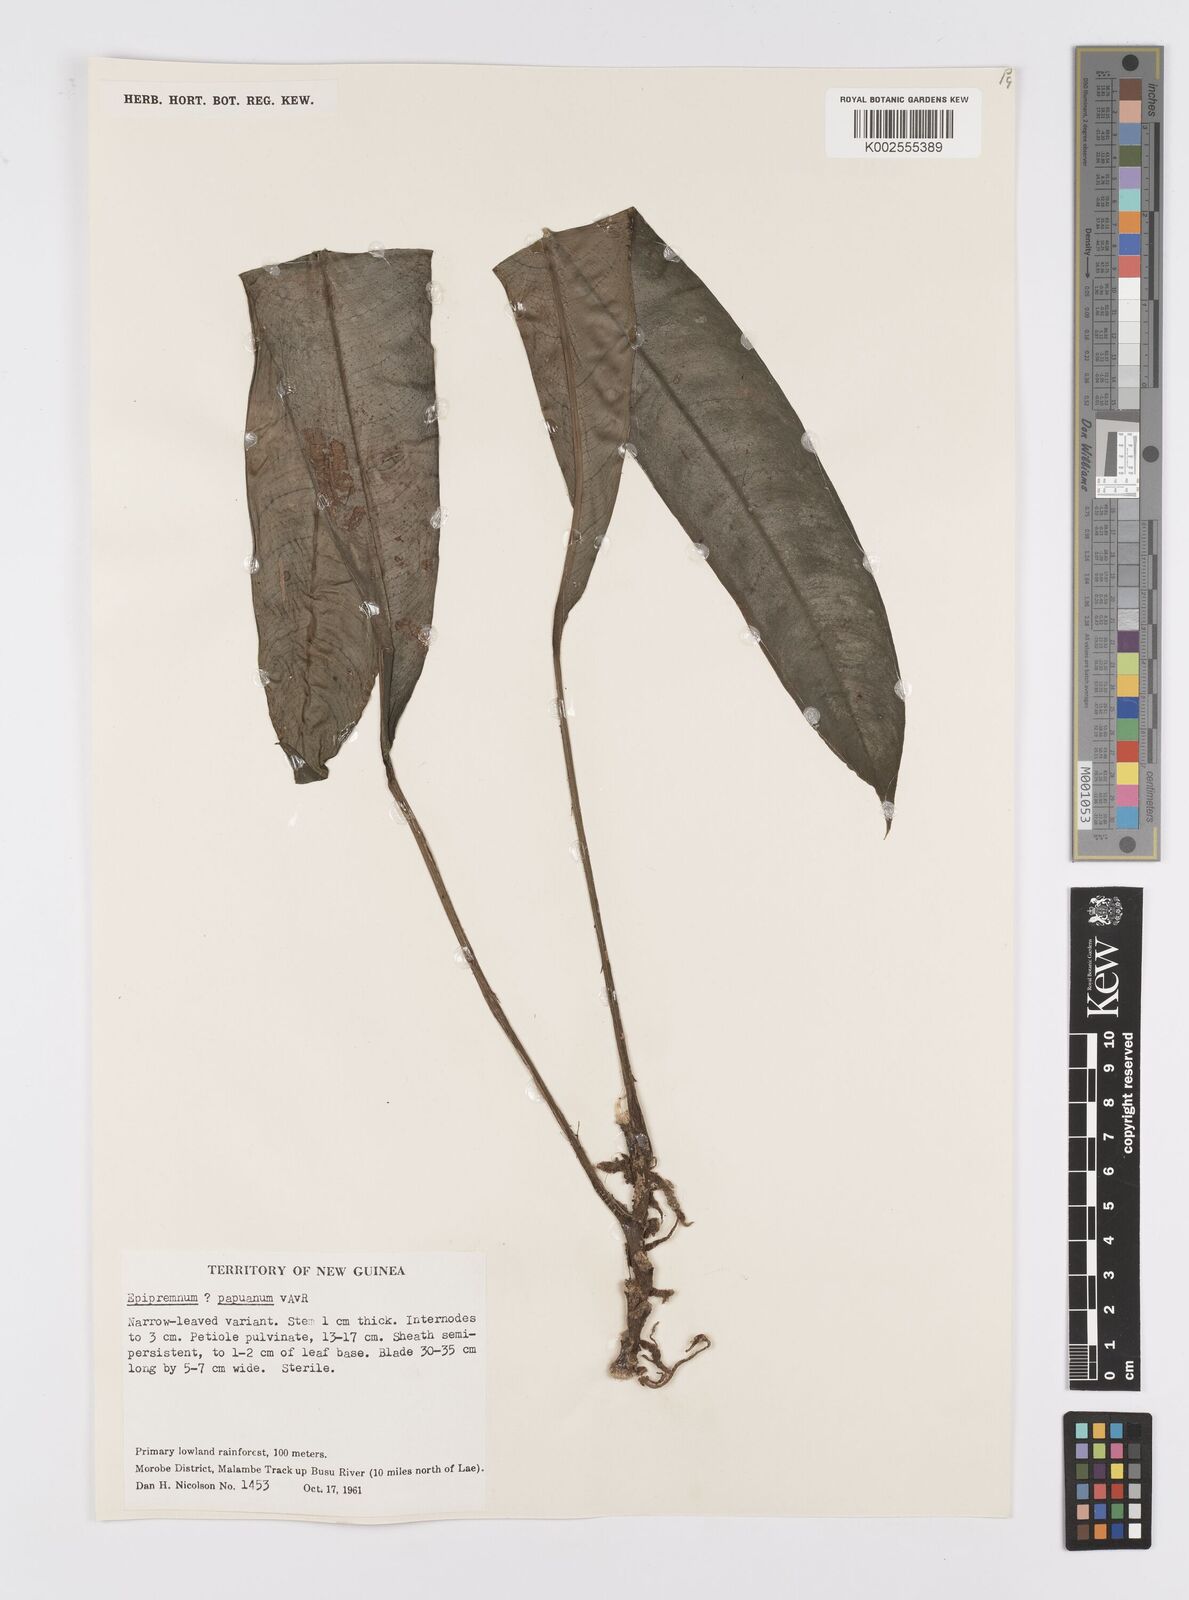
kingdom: Plantae
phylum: Tracheophyta
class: Liliopsida
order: Alismatales
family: Araceae
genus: Epipremnum
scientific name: Epipremnum papuanum
